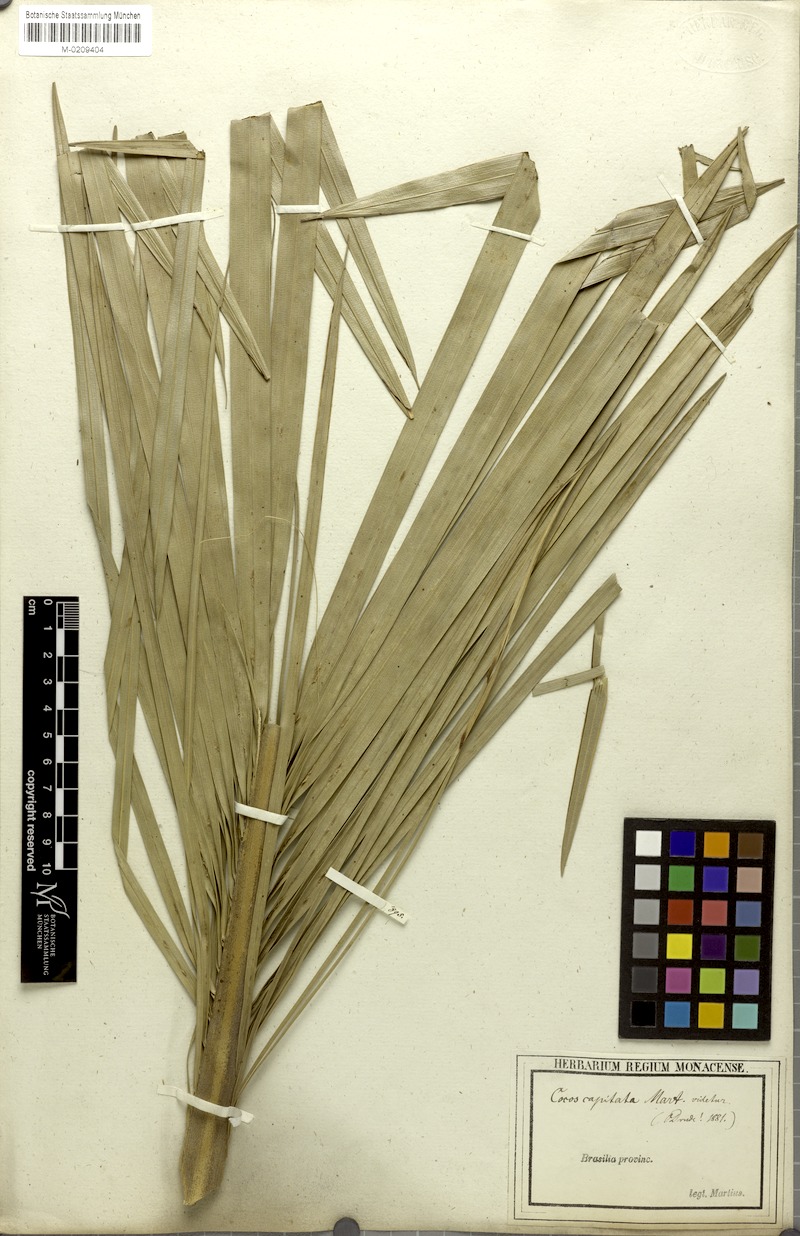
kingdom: Plantae
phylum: Tracheophyta
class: Liliopsida
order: Arecales
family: Arecaceae
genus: Butia
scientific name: Butia capitata
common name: South american jelly palm
